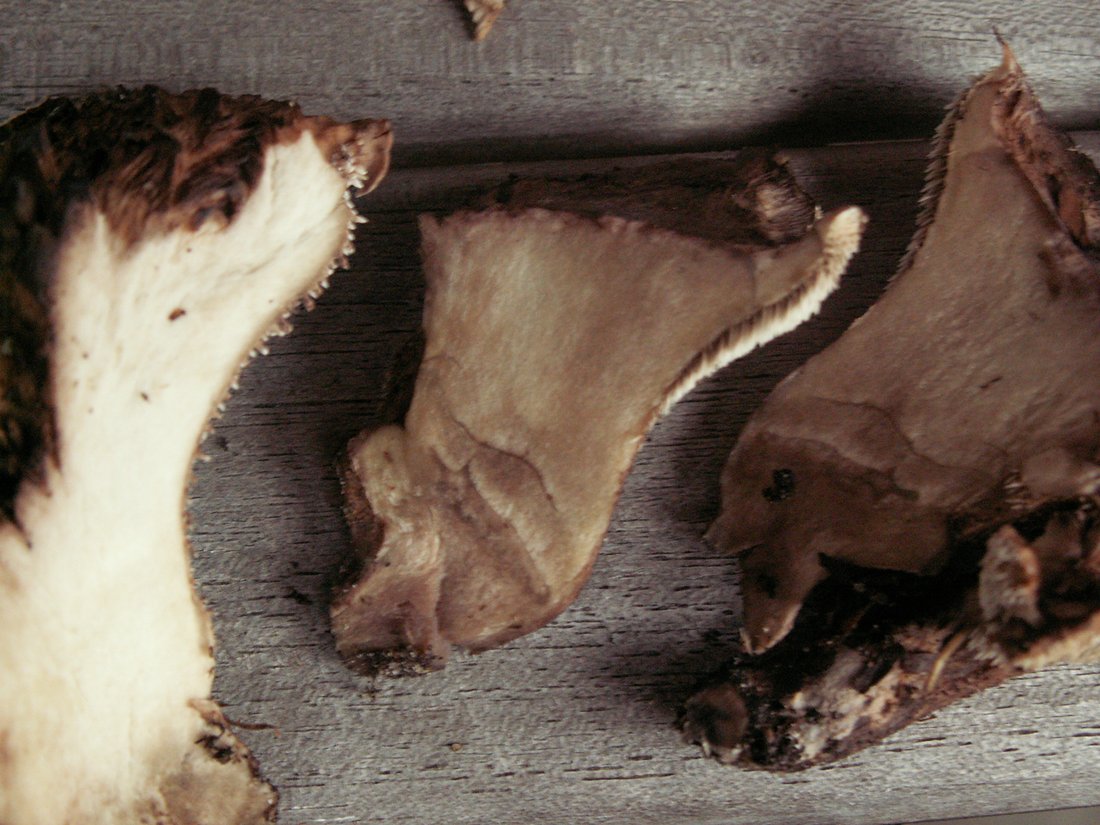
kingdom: Fungi
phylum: Basidiomycota
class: Agaricomycetes
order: Thelephorales
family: Bankeraceae
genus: Hydnellum
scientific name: Hydnellum lepidum
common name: skrænt-korkpigsvamp
